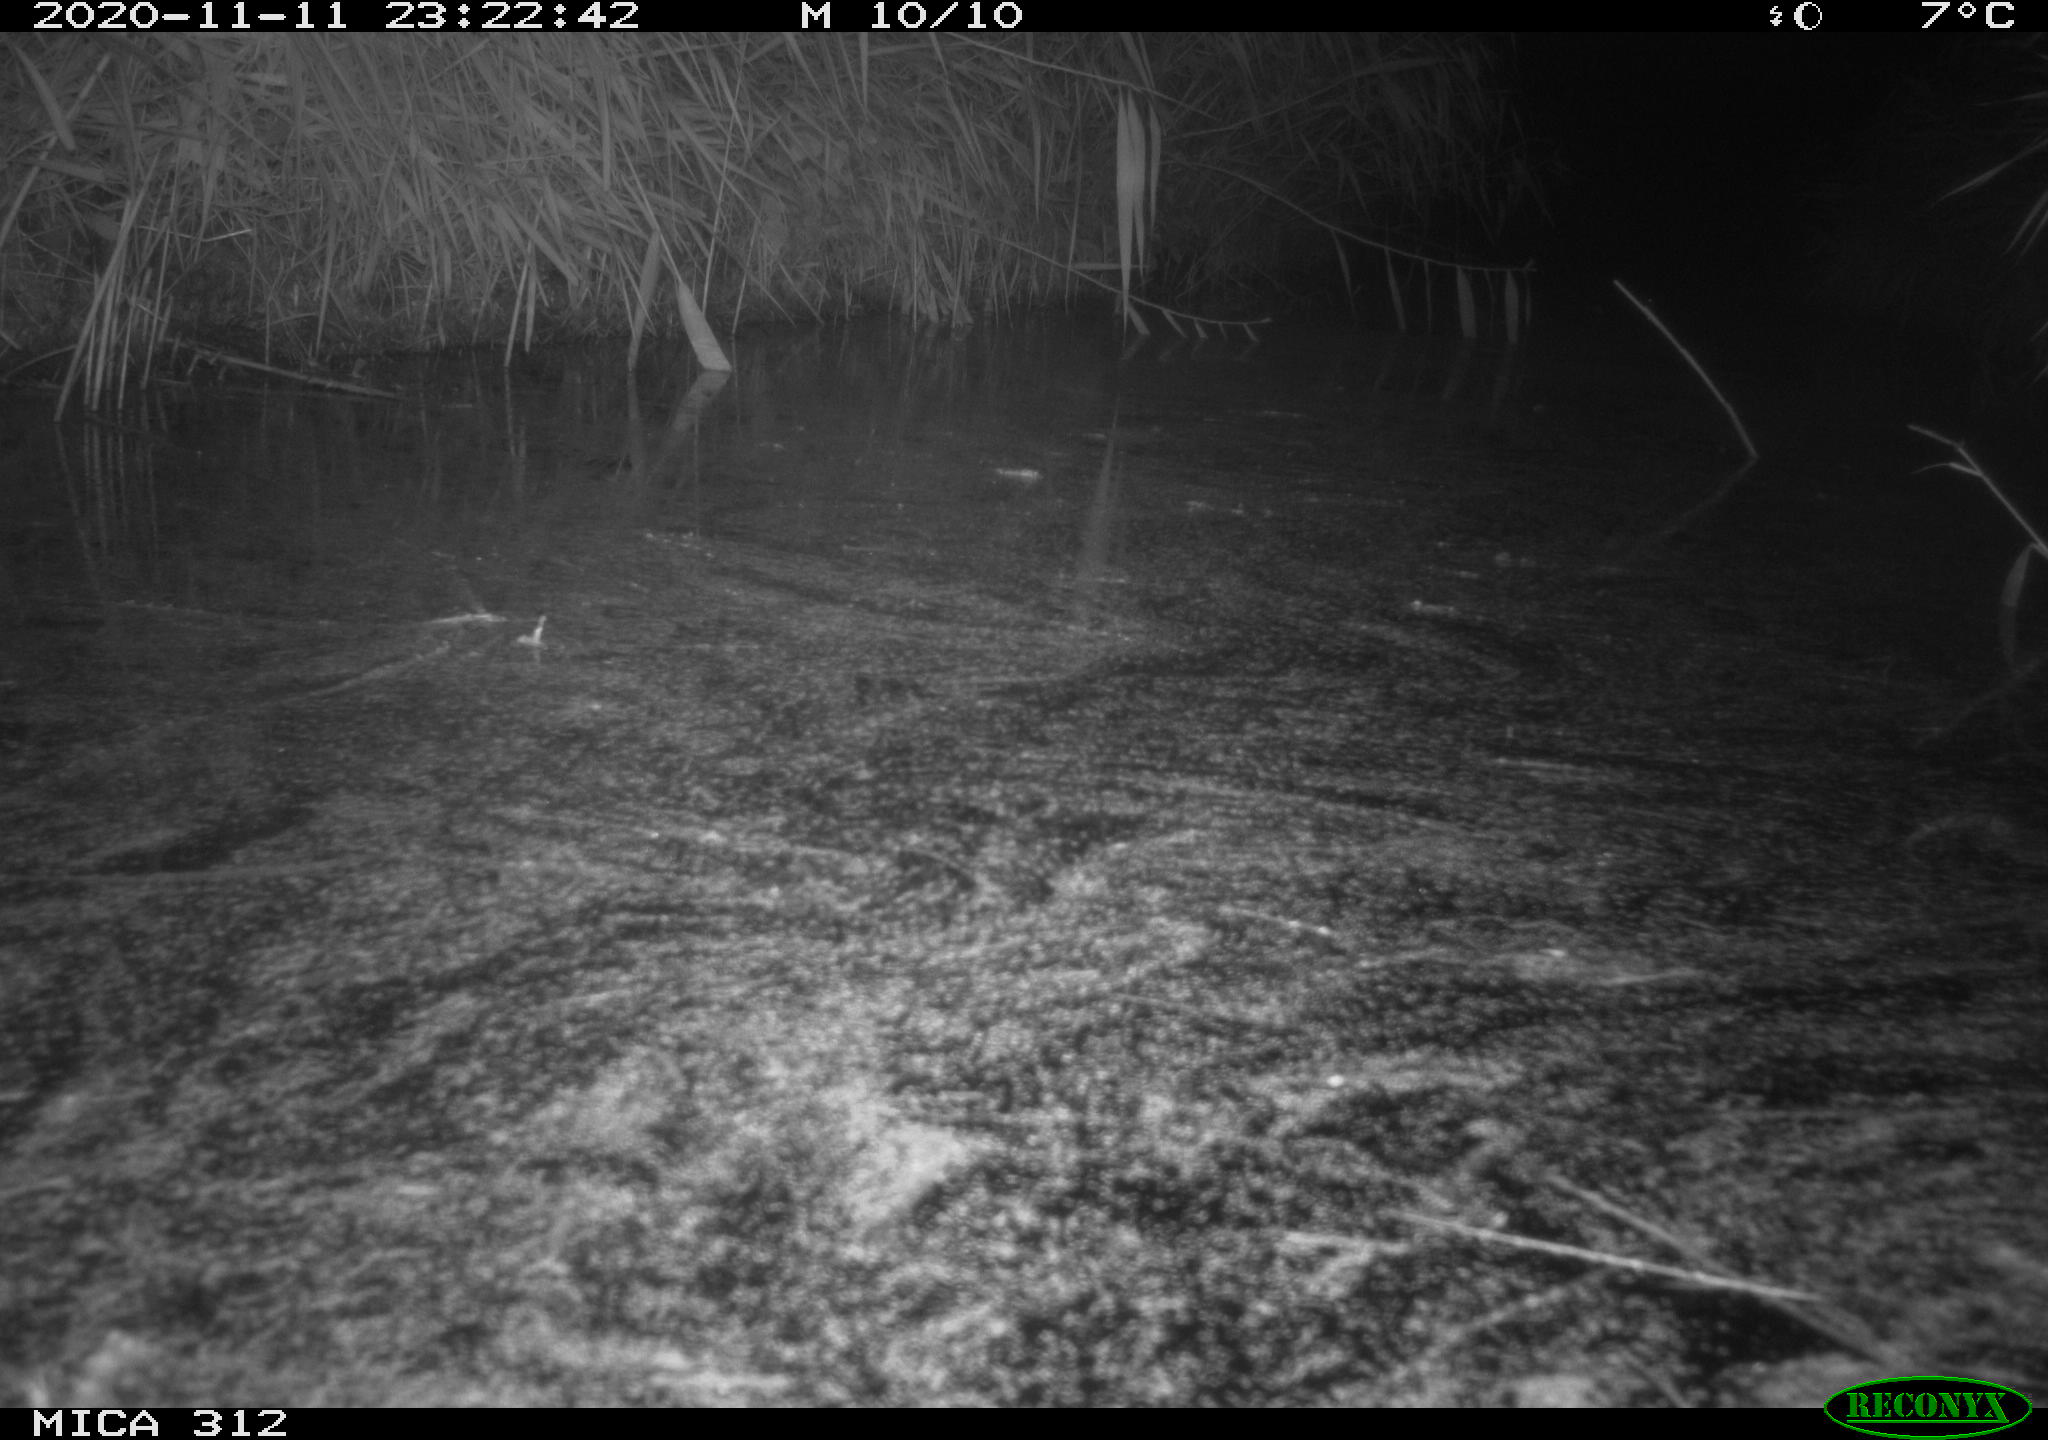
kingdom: Animalia
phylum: Chordata
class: Mammalia
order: Rodentia
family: Muridae
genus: Rattus
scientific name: Rattus norvegicus
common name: Brown rat
